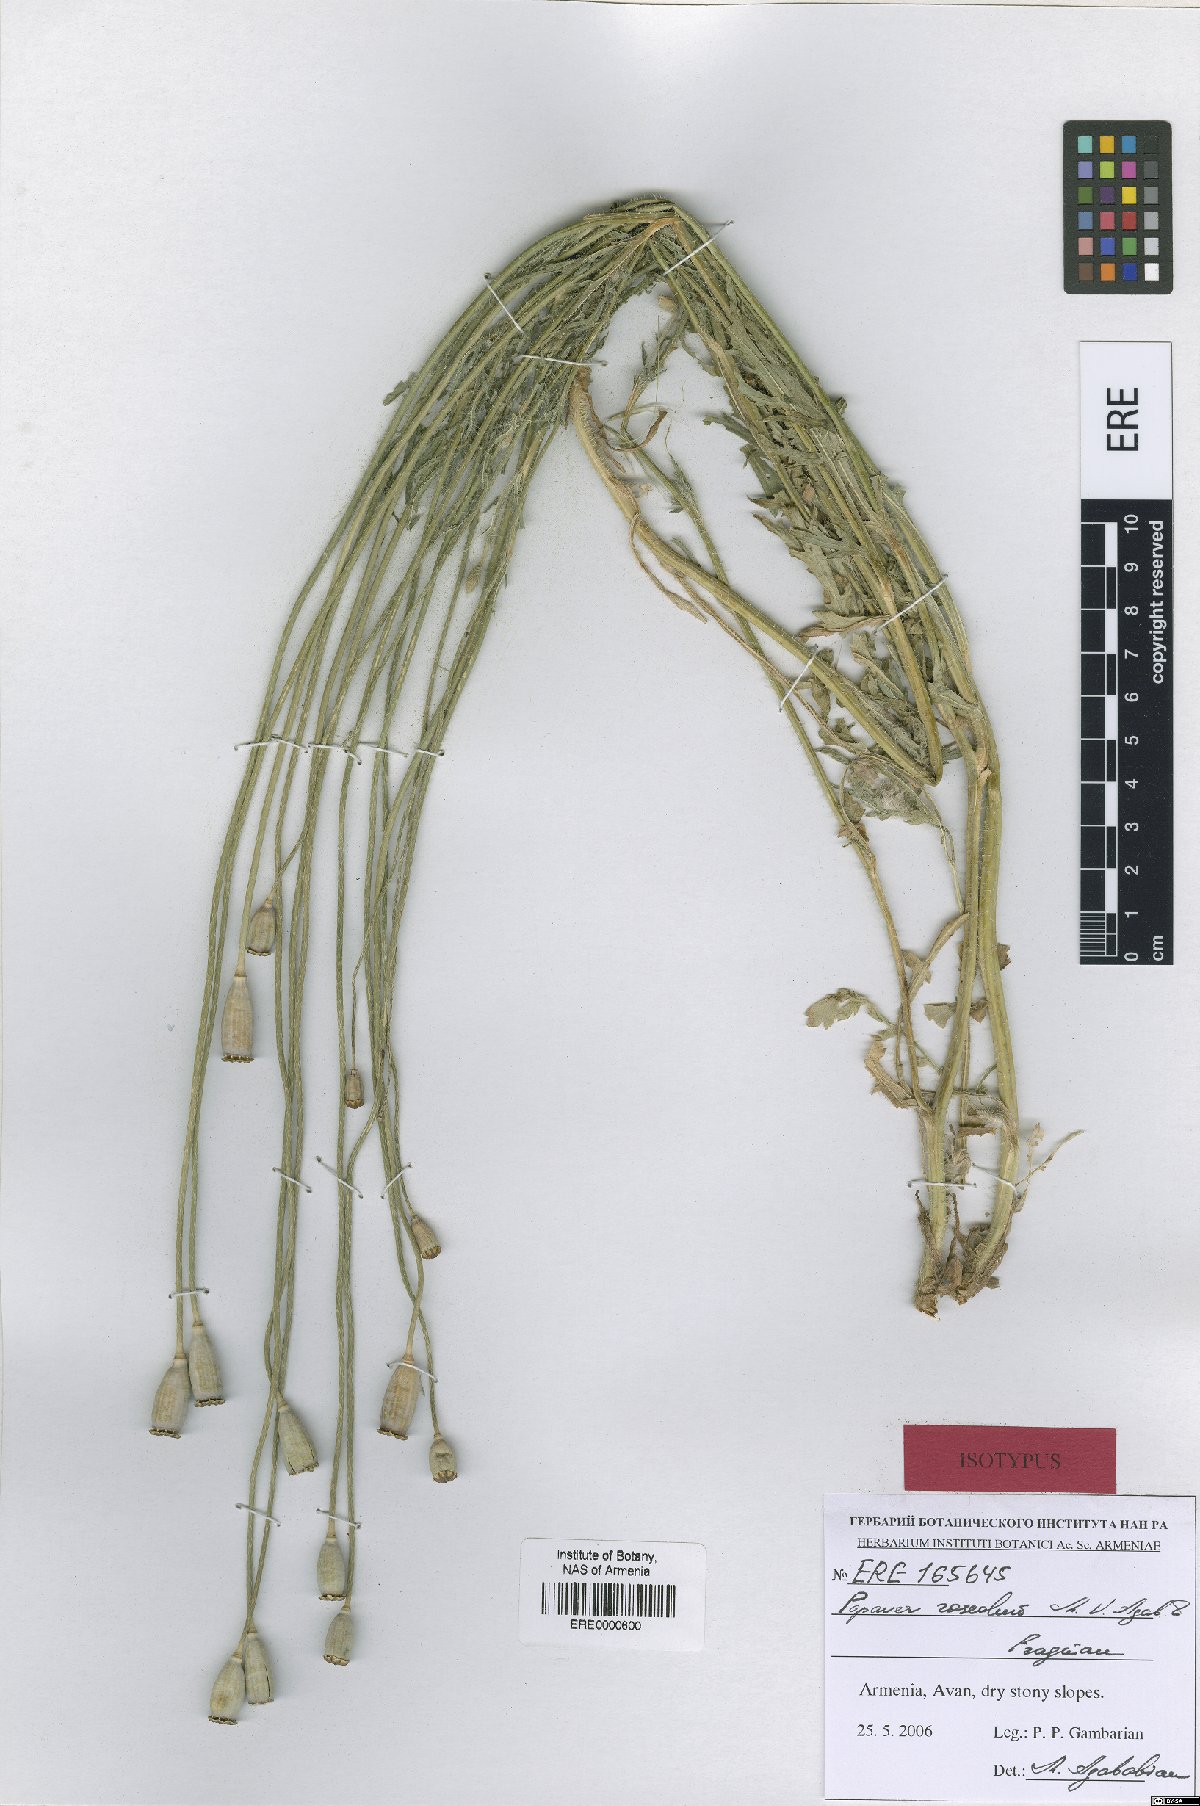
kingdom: Plantae
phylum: Tracheophyta
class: Magnoliopsida
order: Ranunculales
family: Papaveraceae
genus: Papaver
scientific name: Papaver roseolum
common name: Pinkish poppy
